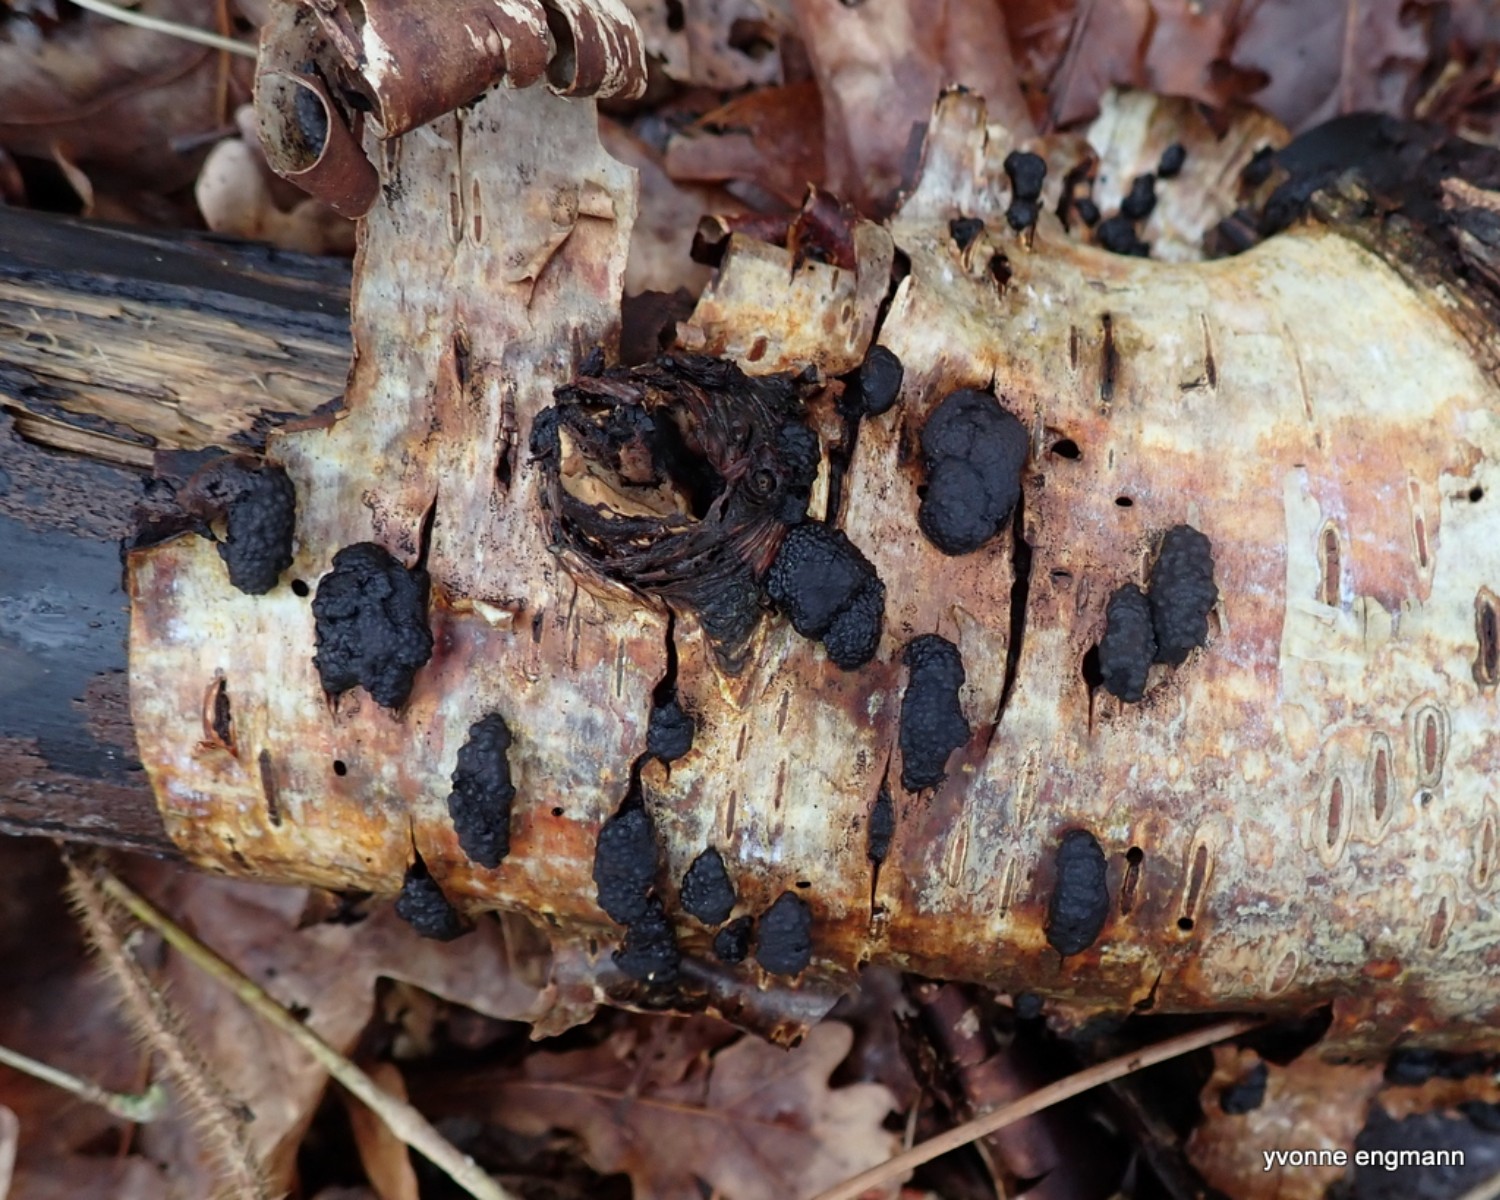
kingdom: Fungi
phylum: Ascomycota
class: Sordariomycetes
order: Xylariales
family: Hypoxylaceae
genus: Jackrogersella
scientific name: Jackrogersella multiformis
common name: foranderlig kulbær
